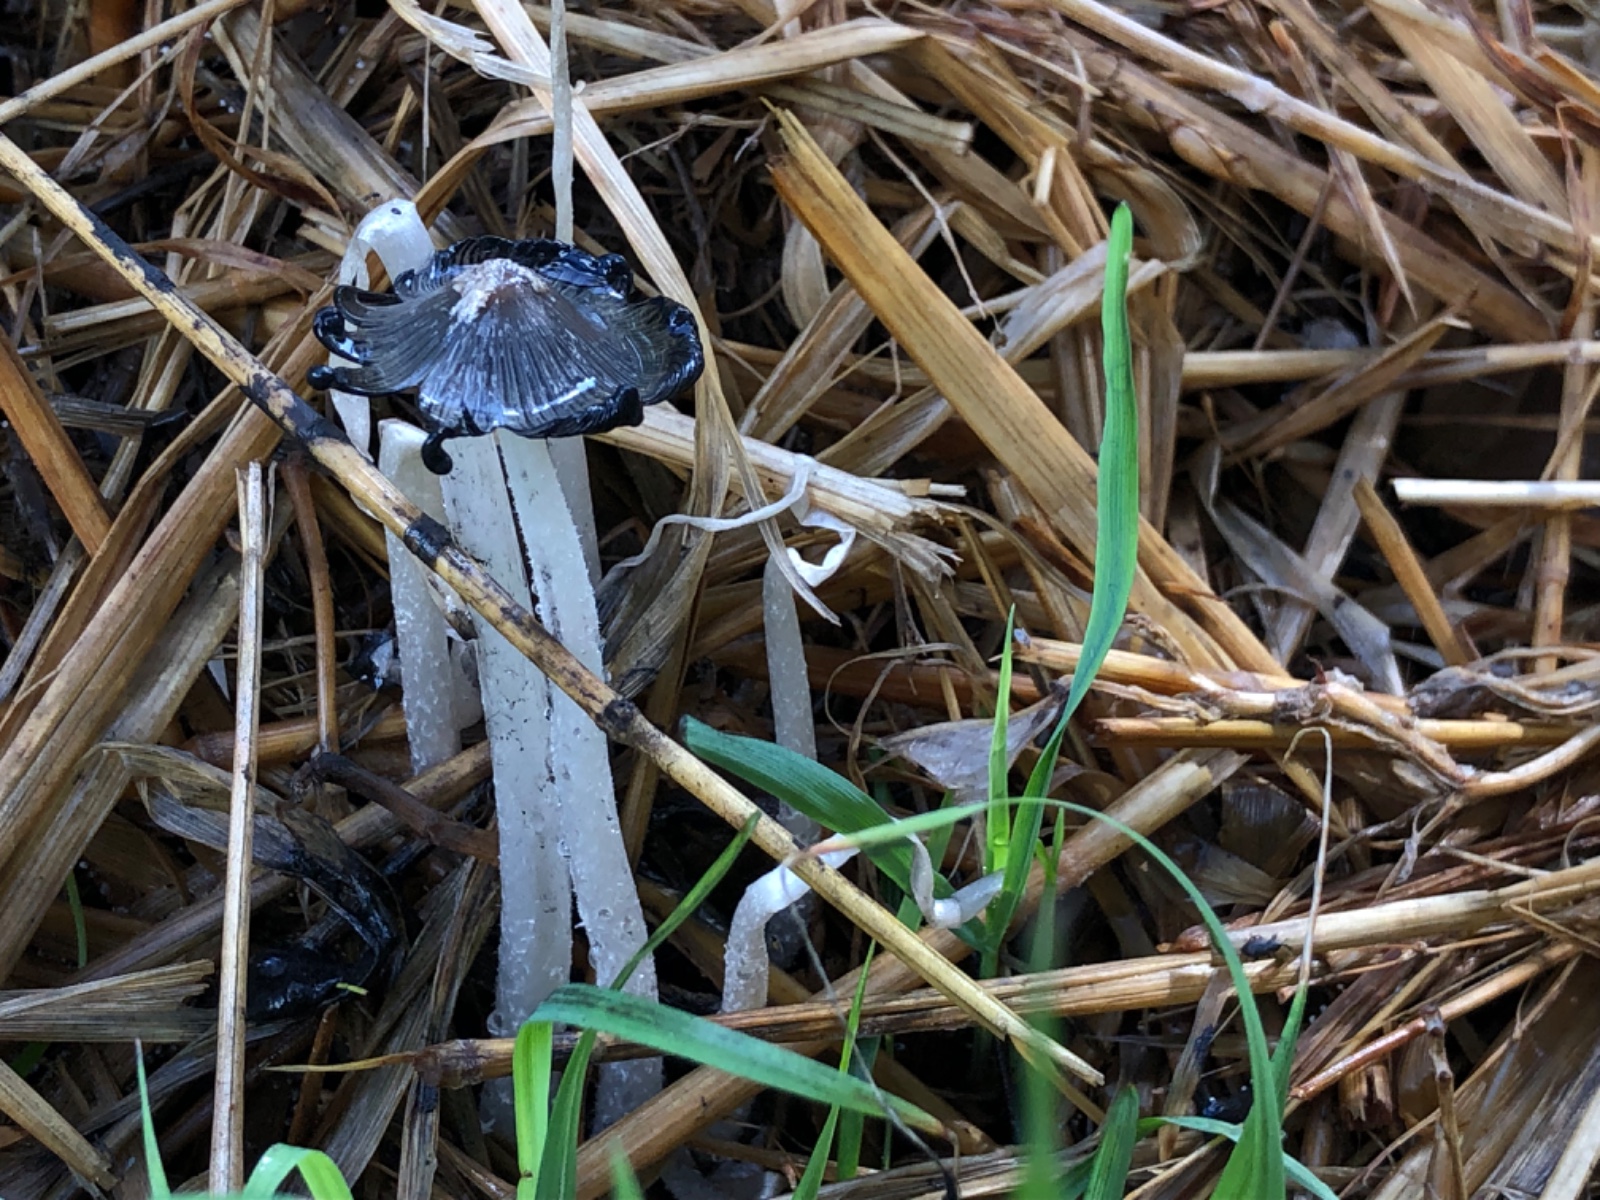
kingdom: Fungi
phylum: Basidiomycota
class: Agaricomycetes
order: Agaricales
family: Psathyrellaceae
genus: Coprinopsis
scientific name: Coprinopsis
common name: blækhat
